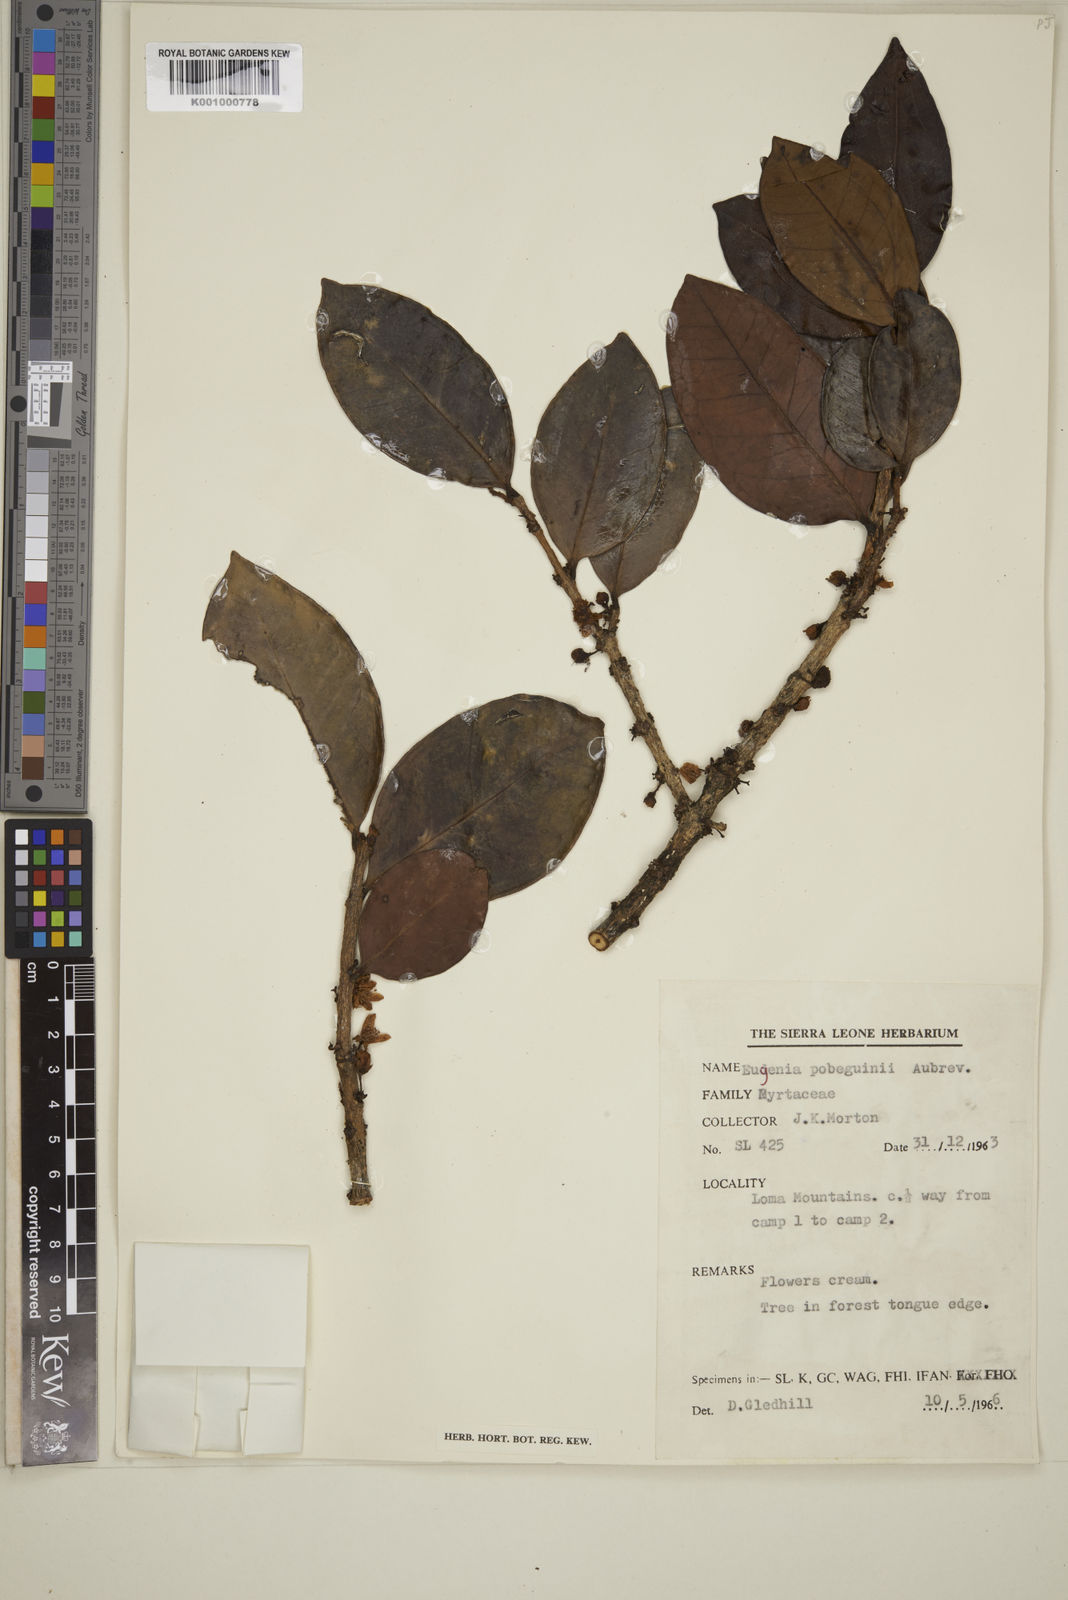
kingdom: Plantae
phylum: Tracheophyta
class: Magnoliopsida
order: Myrtales
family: Myrtaceae
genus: Eugenia
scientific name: Eugenia
